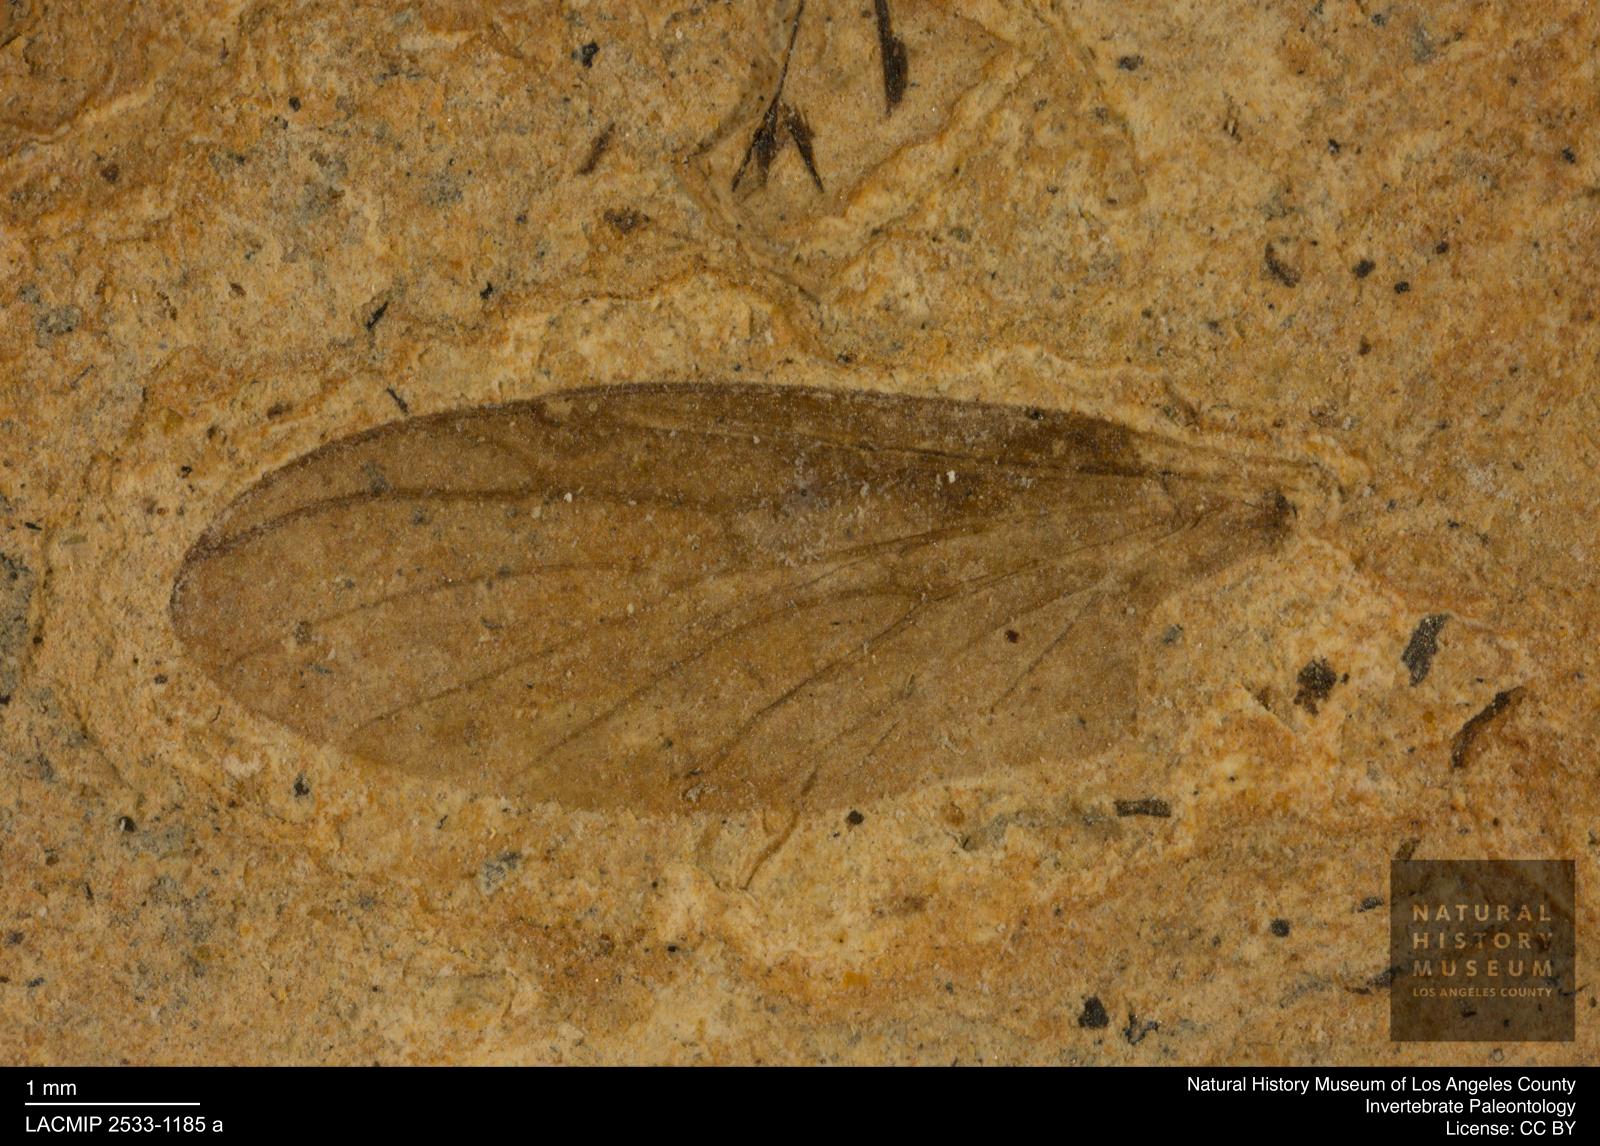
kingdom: Animalia
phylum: Arthropoda
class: Insecta
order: Diptera
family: Bibionidae
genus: Plecia
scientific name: Plecia hypogaea
